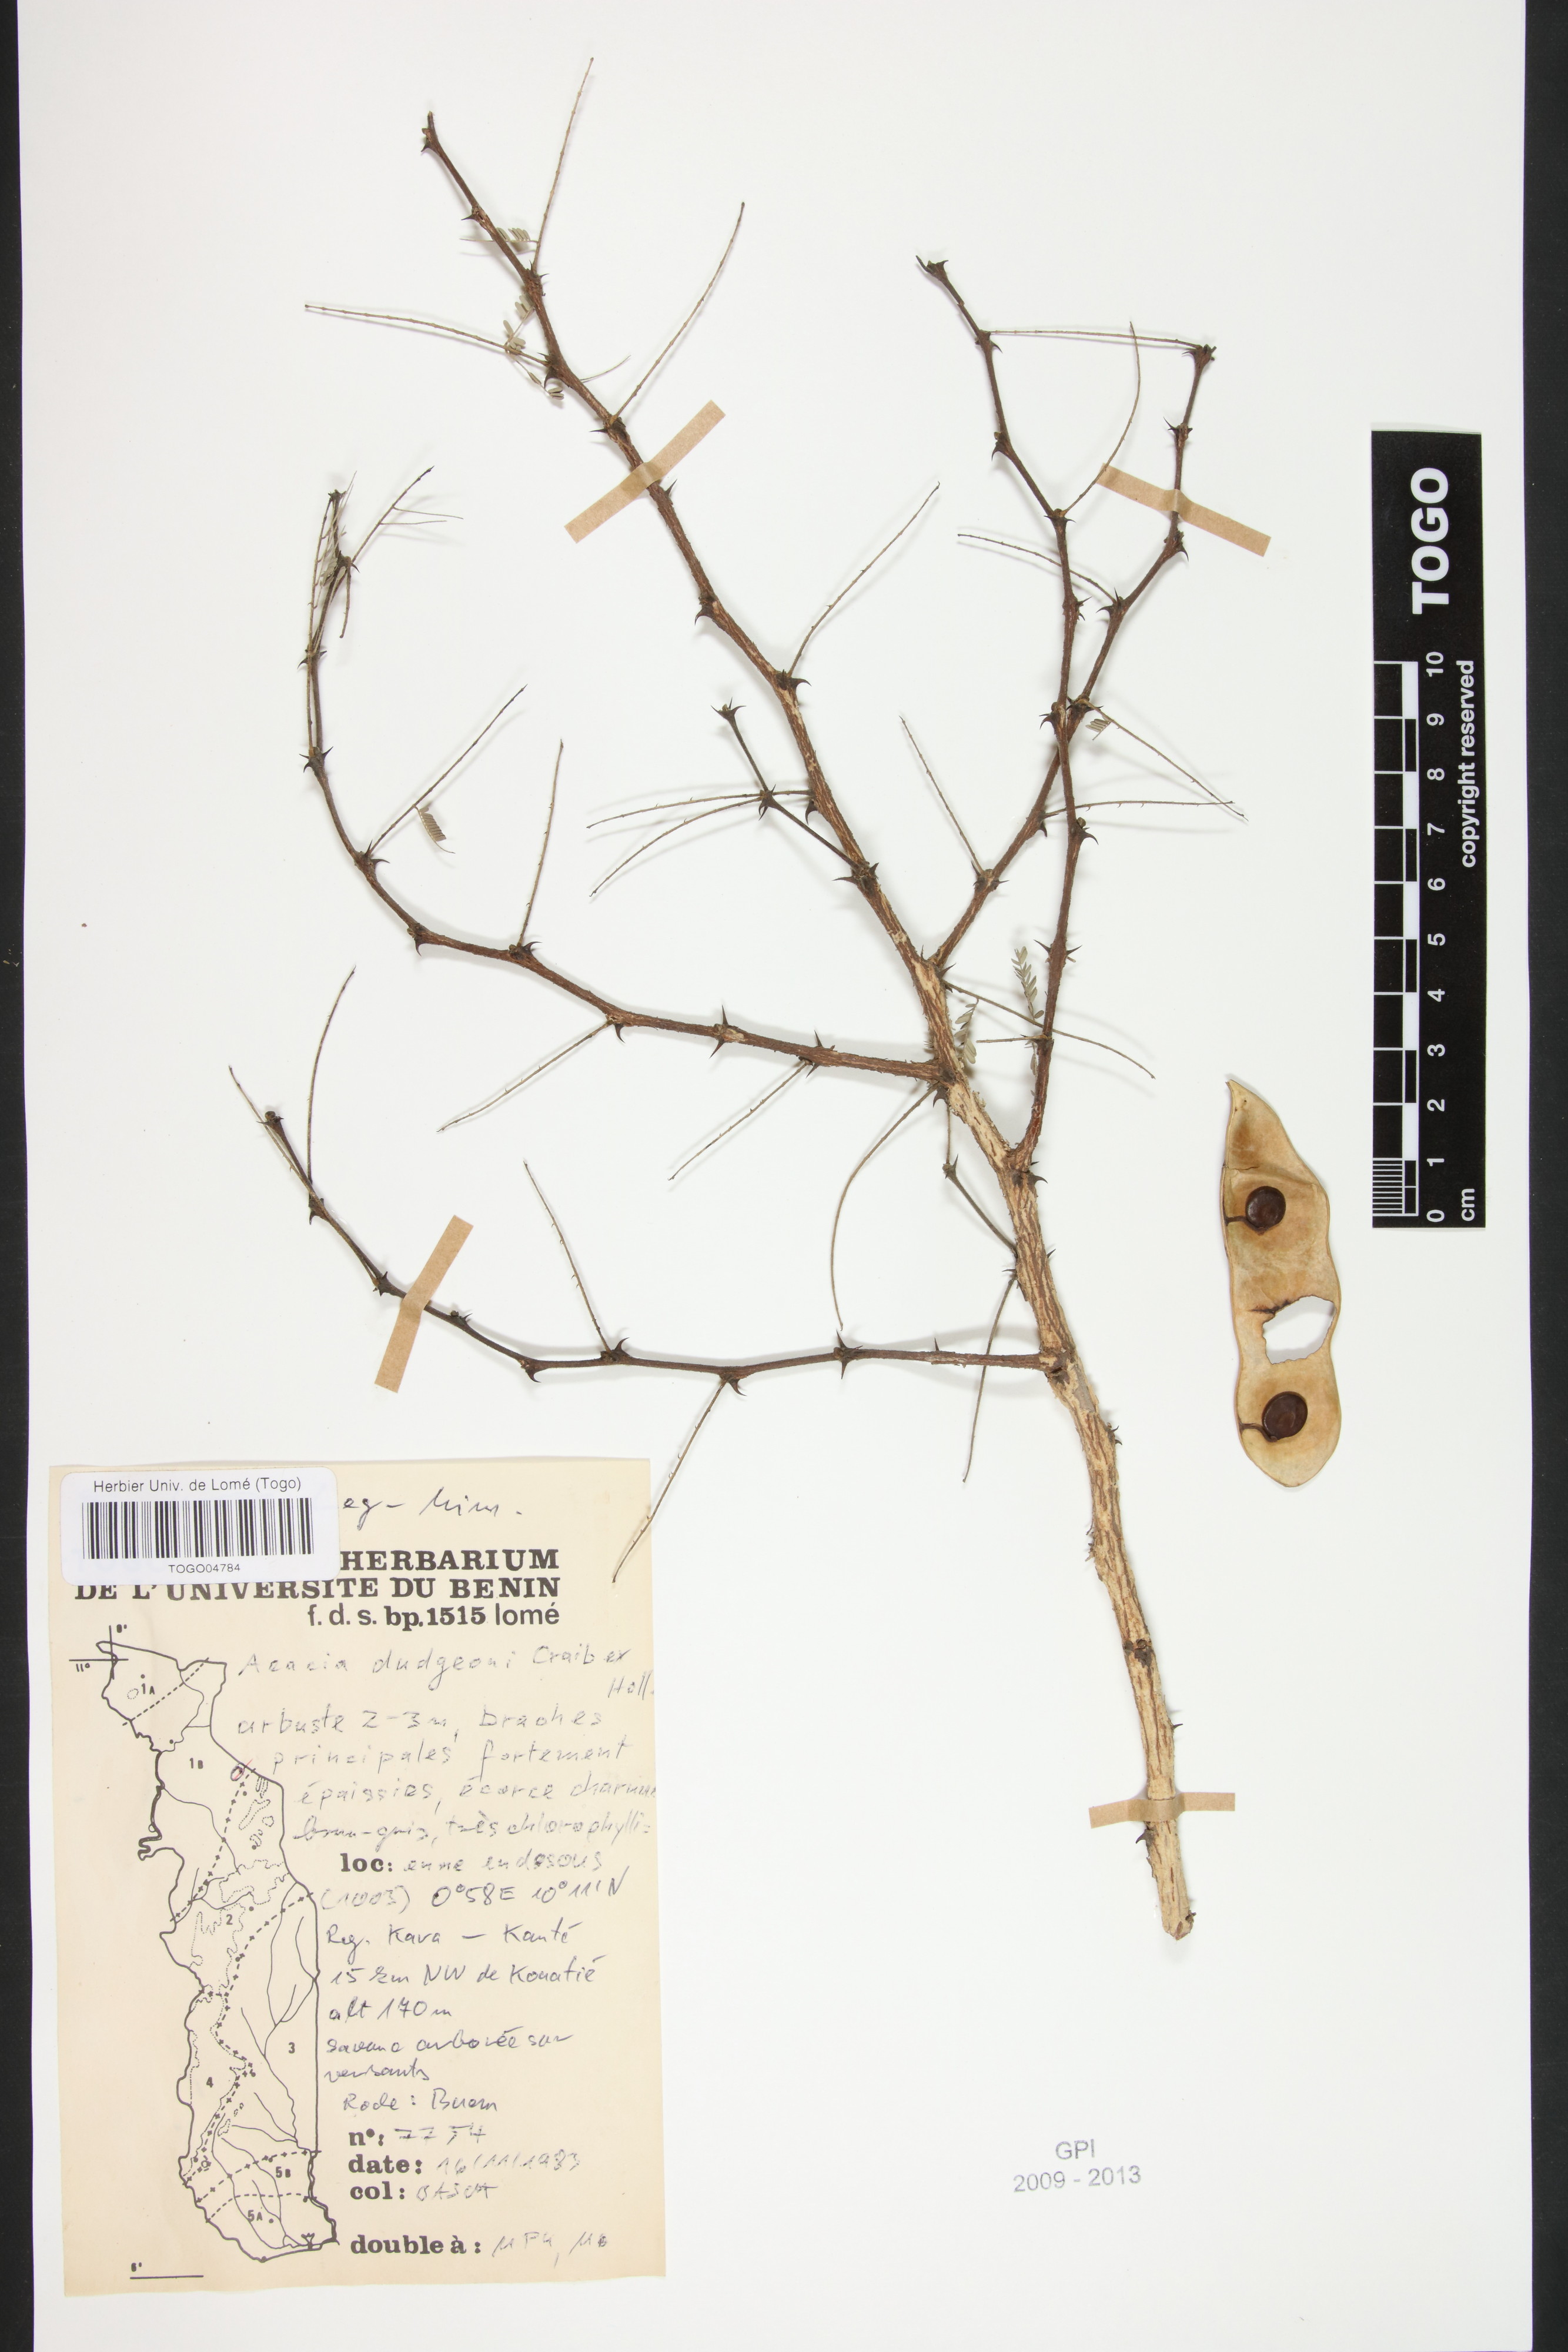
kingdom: Plantae
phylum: Tracheophyta
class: Magnoliopsida
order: Fabales
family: Fabaceae
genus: Senegalia
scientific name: Senegalia dudgeonii
